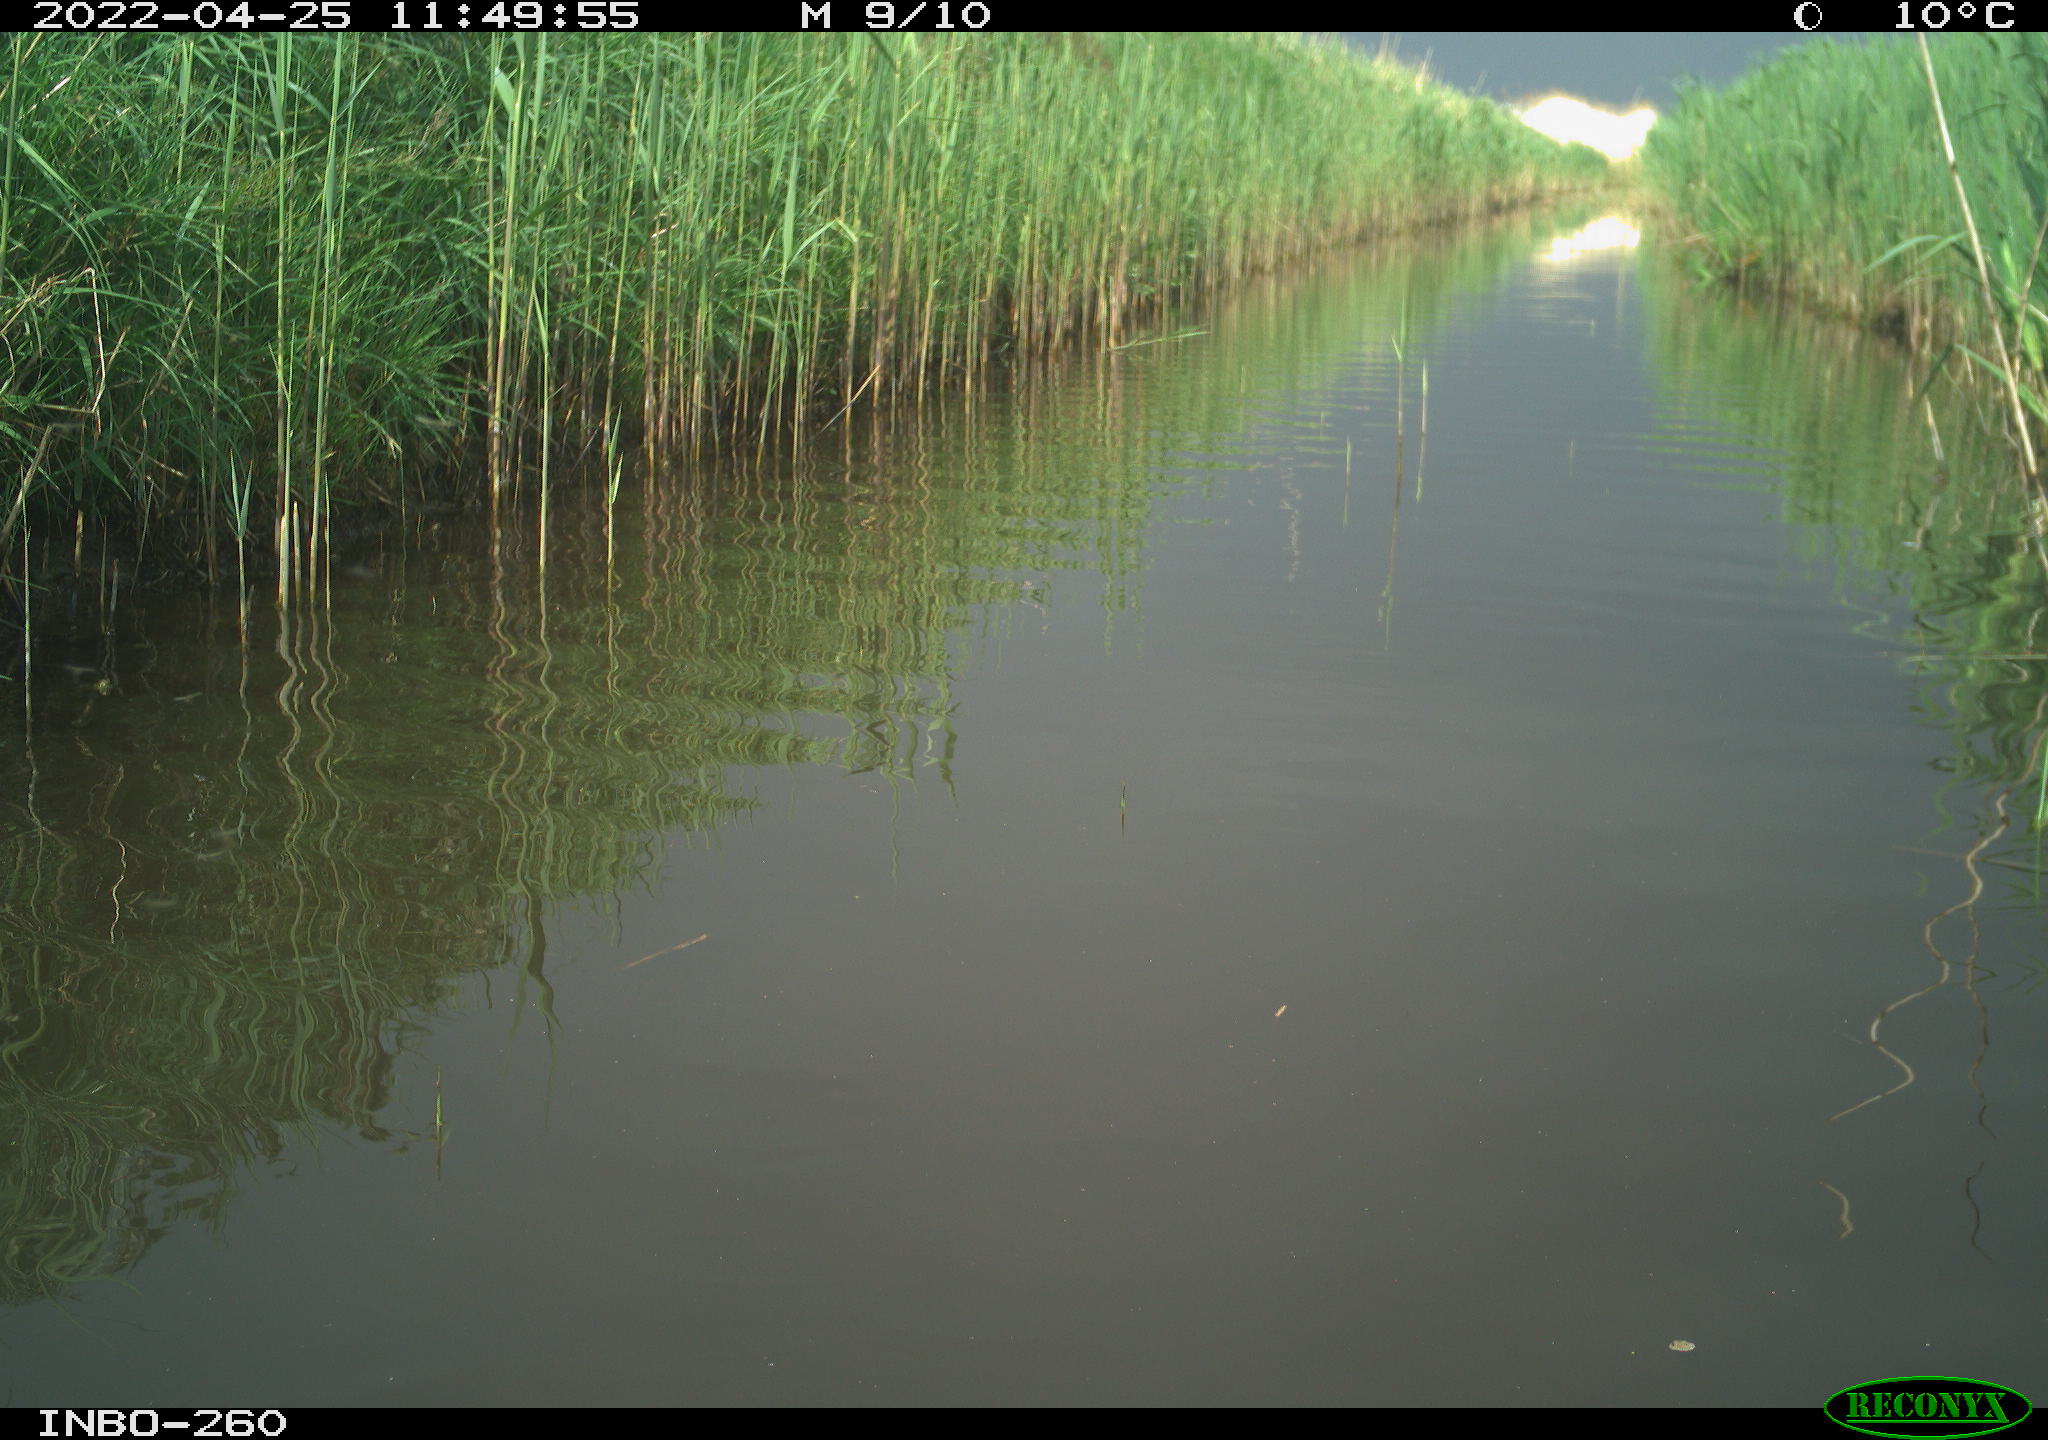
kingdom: Animalia
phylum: Chordata
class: Aves
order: Anseriformes
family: Anatidae
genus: Anas
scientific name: Anas platyrhynchos
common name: Mallard
